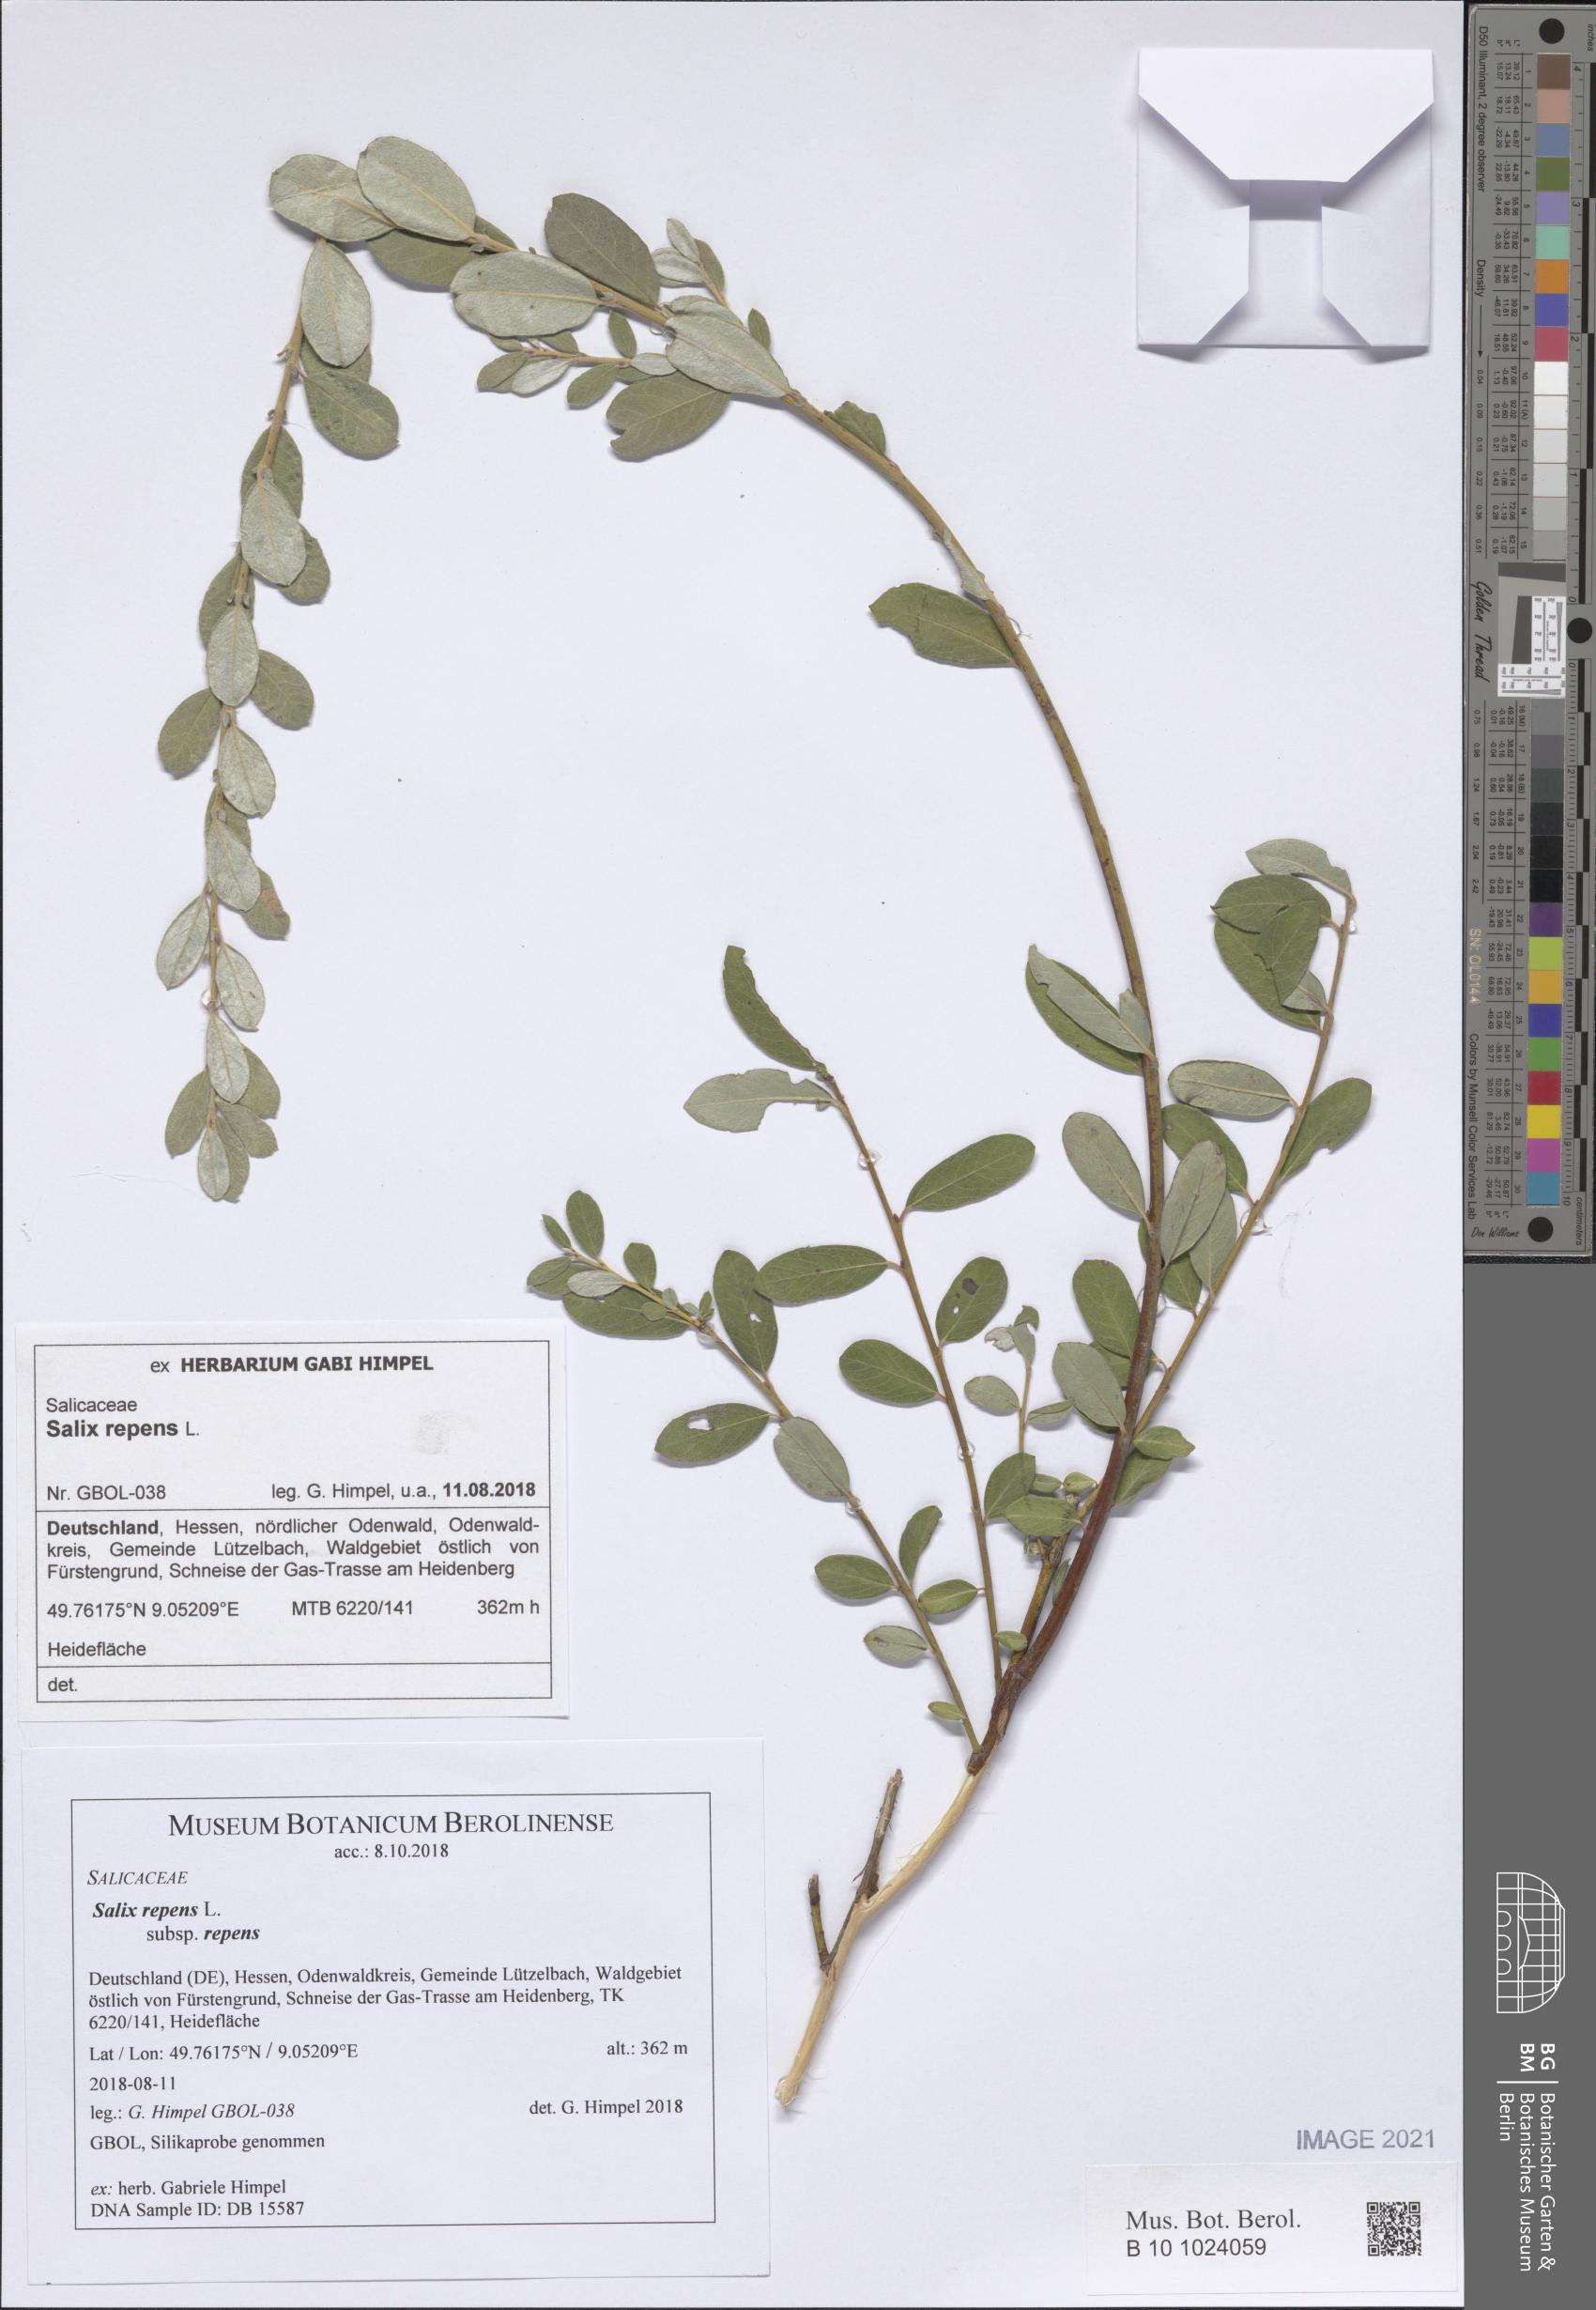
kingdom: Plantae
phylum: Tracheophyta
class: Magnoliopsida
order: Malpighiales
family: Salicaceae
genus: Salix
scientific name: Salix repens
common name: Creeping willow
